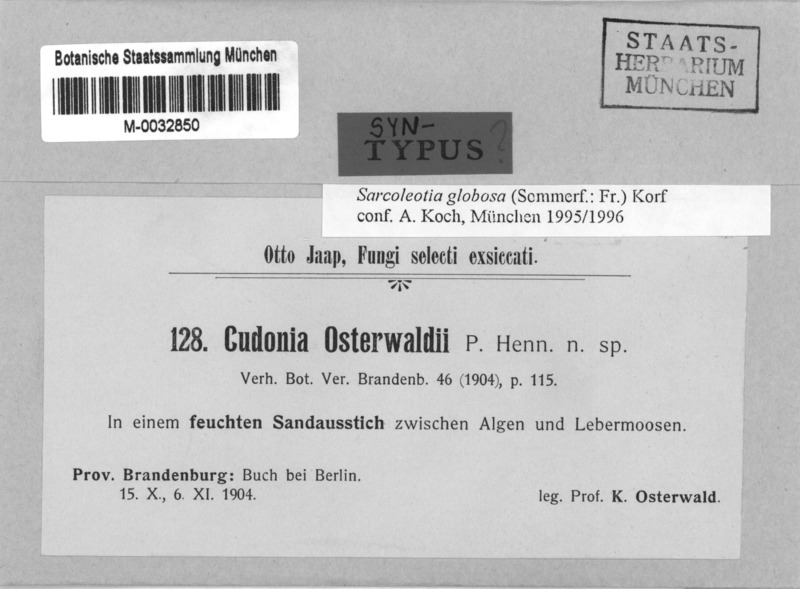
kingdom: Fungi
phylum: Ascomycota
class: Geoglossomycetes
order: Geoglossales
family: Geoglossaceae
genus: Sarcoleotia
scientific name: Sarcoleotia globosa
